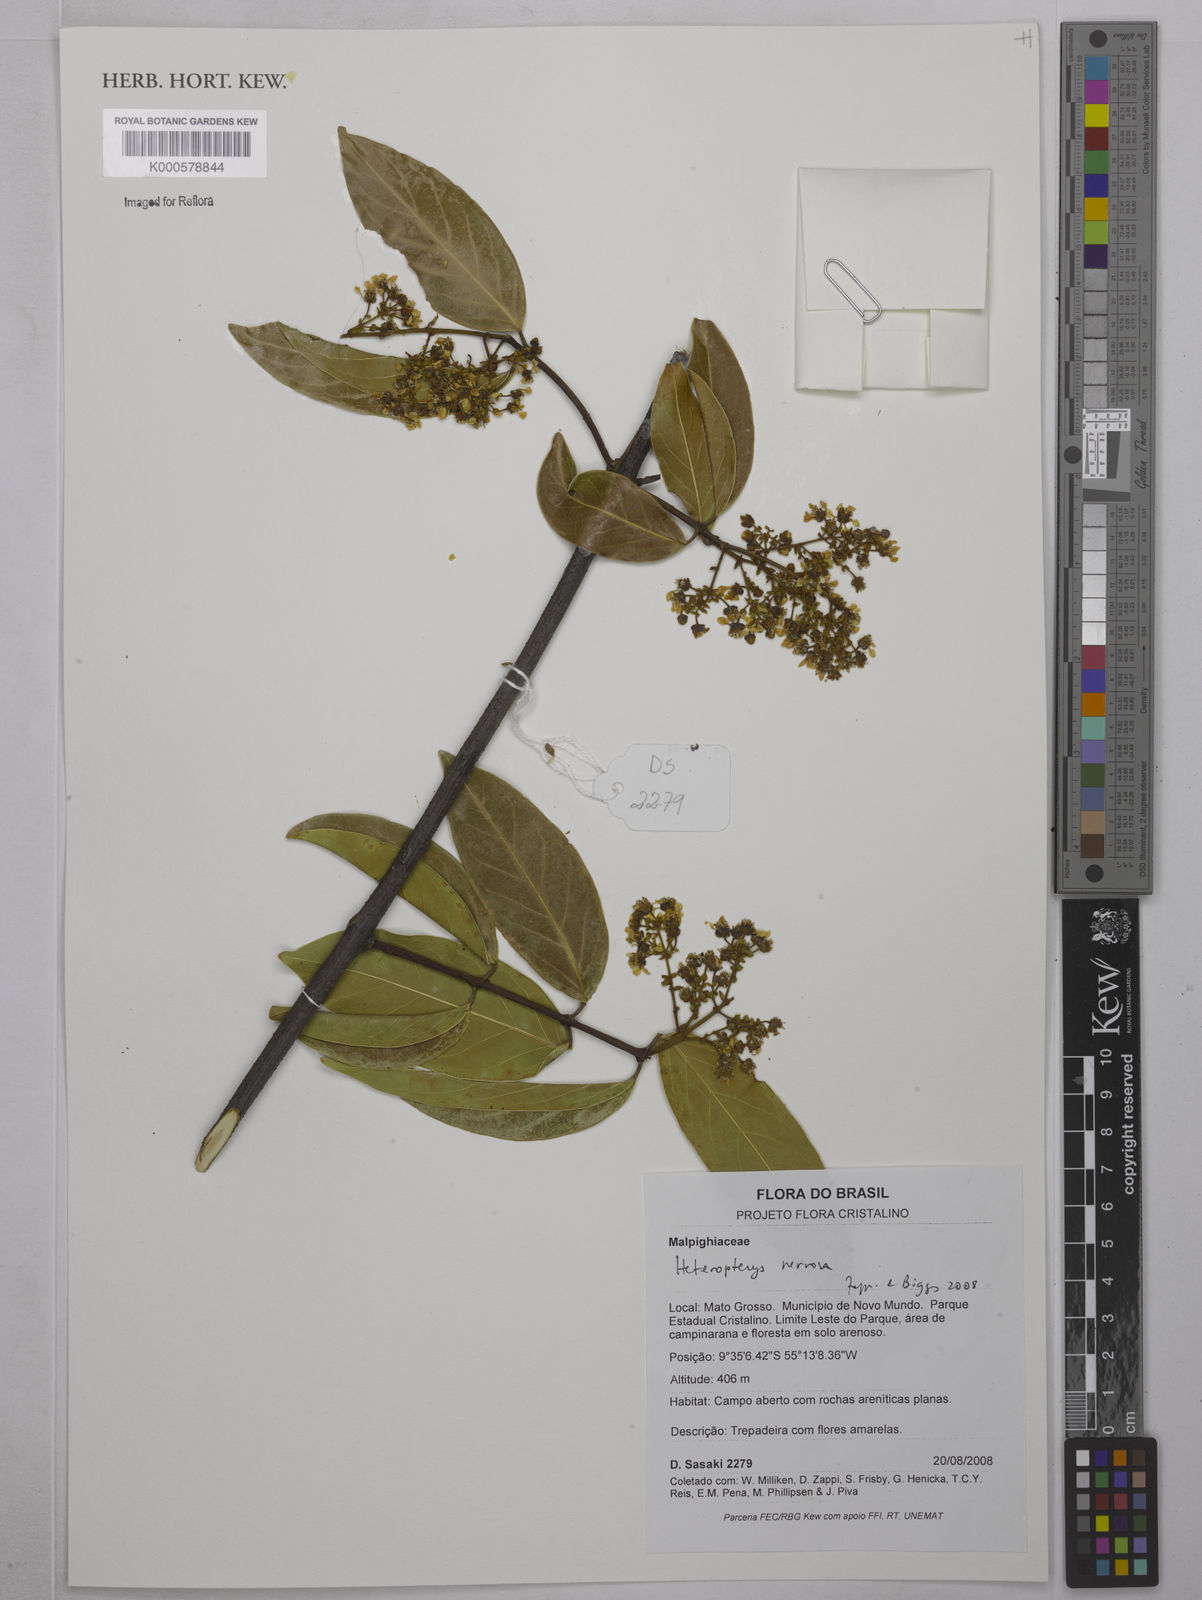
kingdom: Plantae
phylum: Tracheophyta
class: Magnoliopsida
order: Malpighiales
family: Malpighiaceae
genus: Heteropterys
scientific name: Heteropterys nervosa
